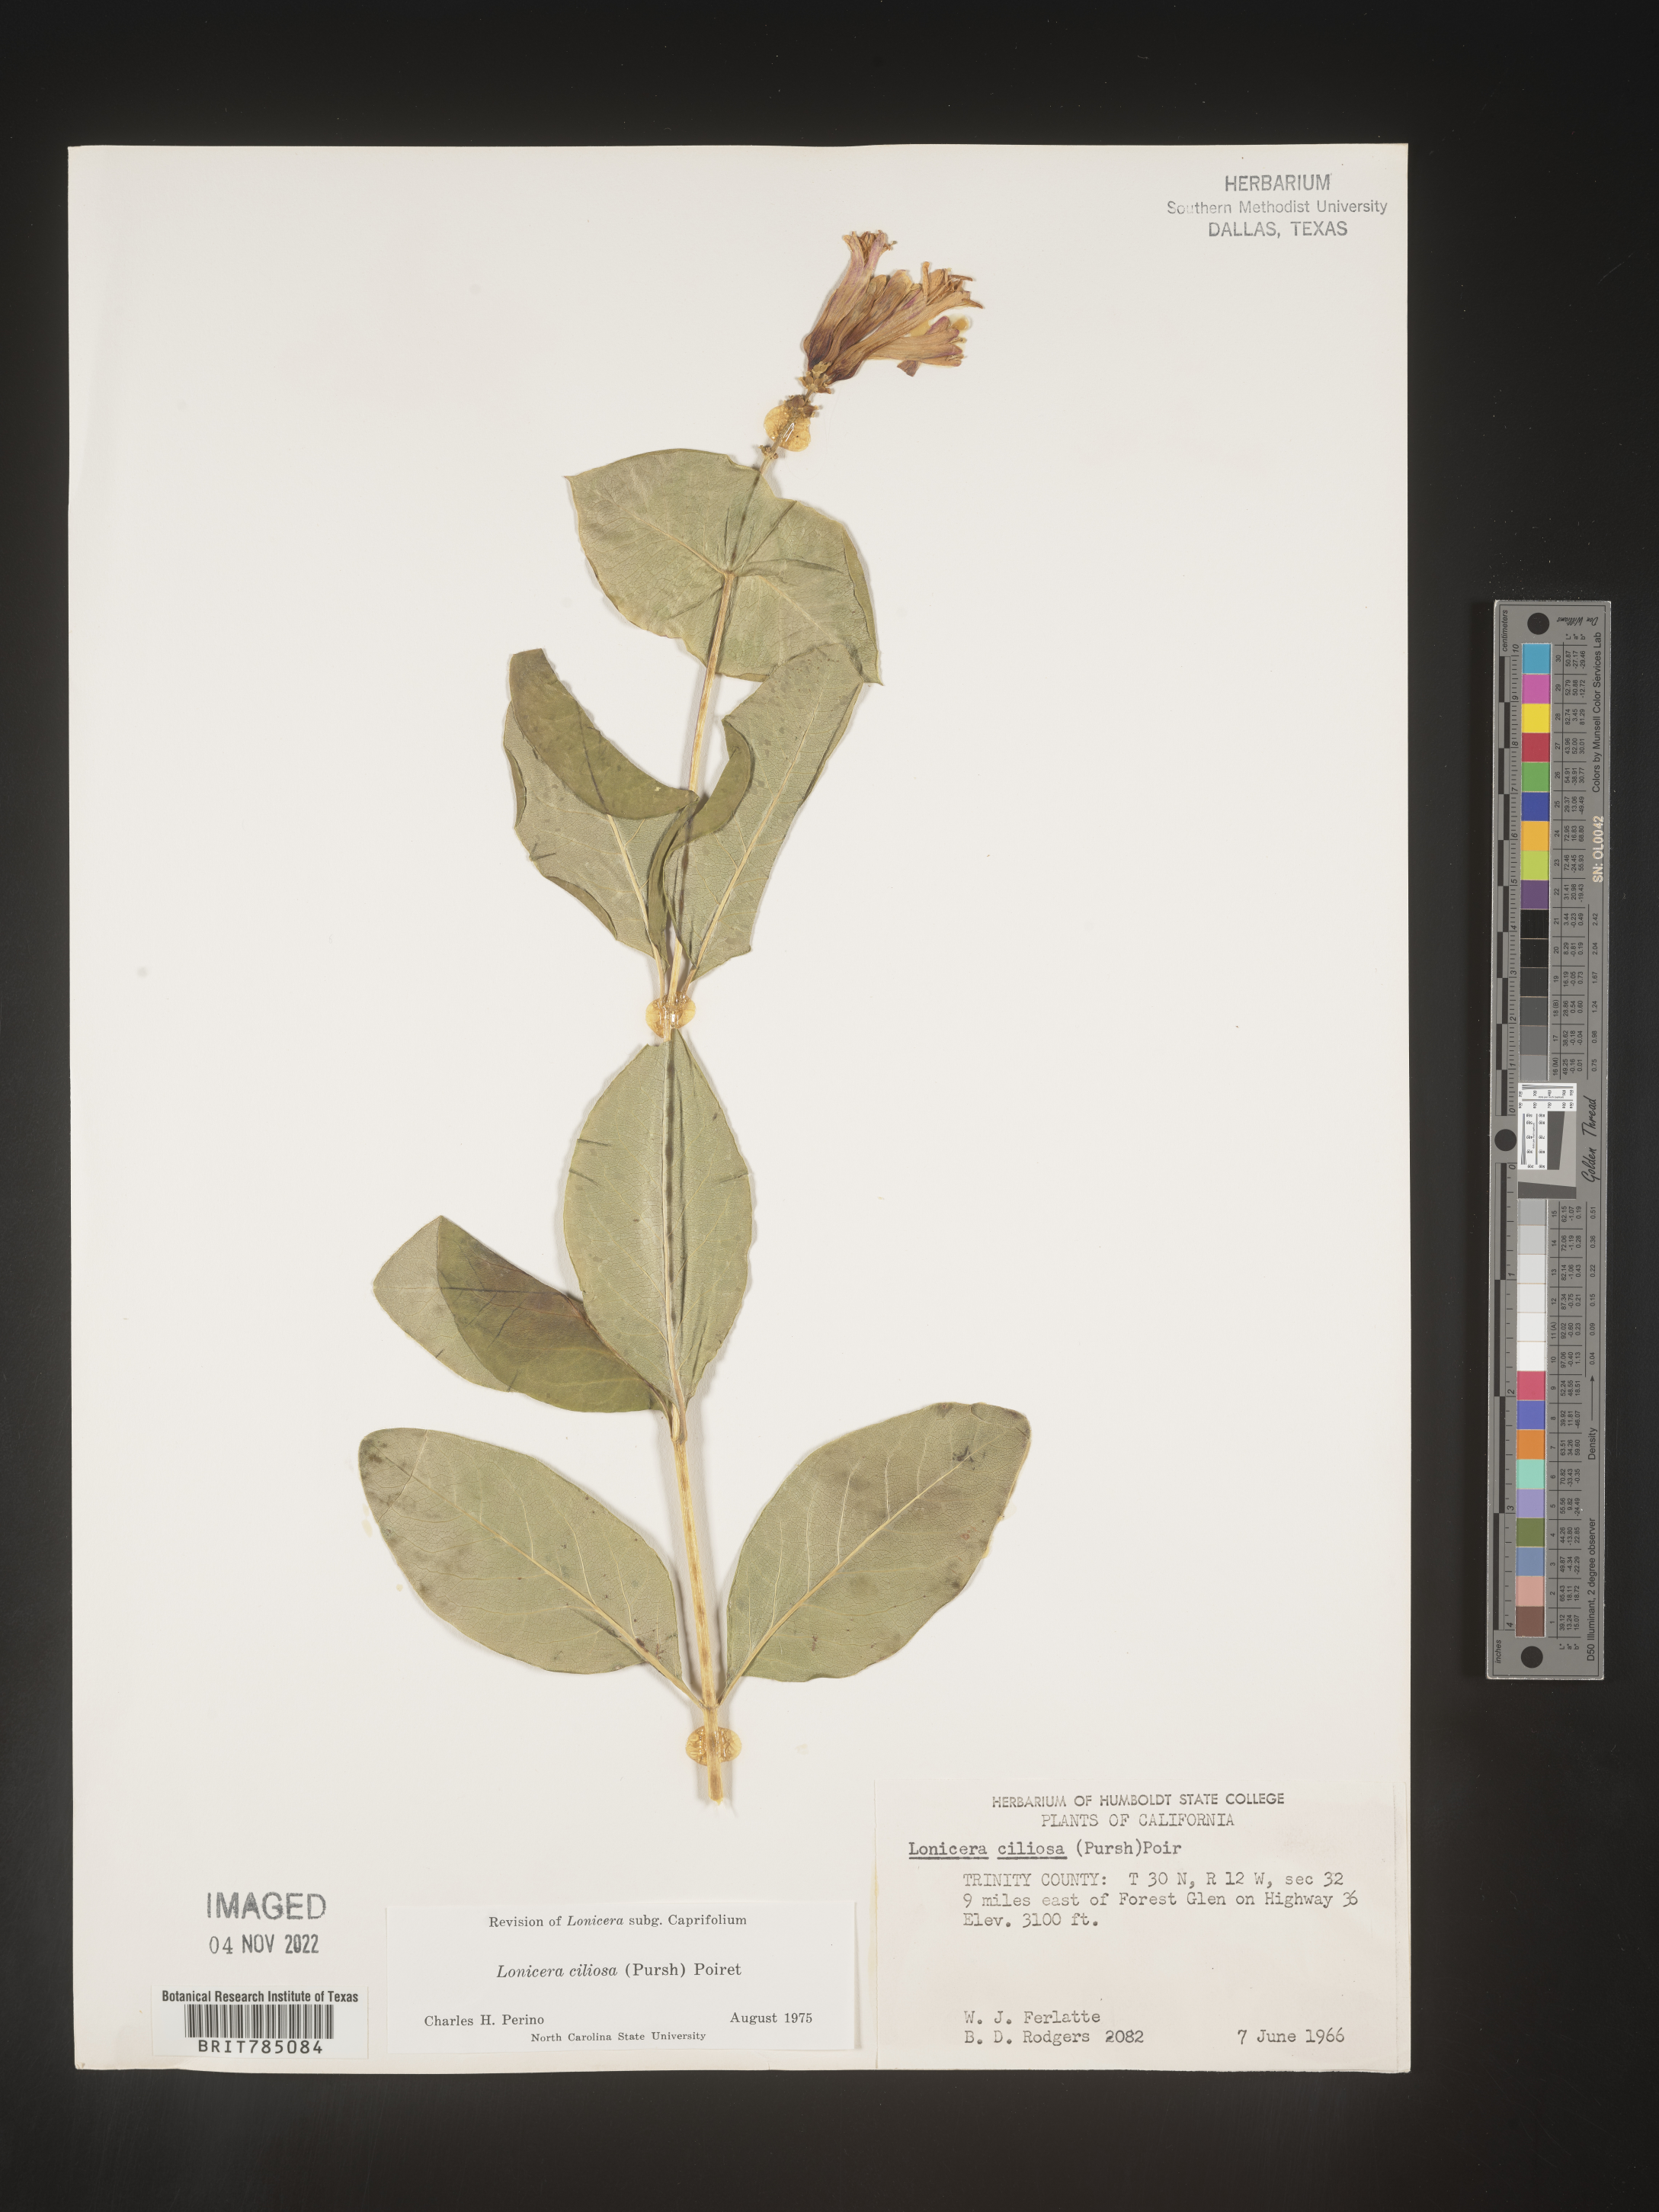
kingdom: Plantae
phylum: Tracheophyta
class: Magnoliopsida
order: Dipsacales
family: Caprifoliaceae
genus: Lonicera
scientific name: Lonicera
